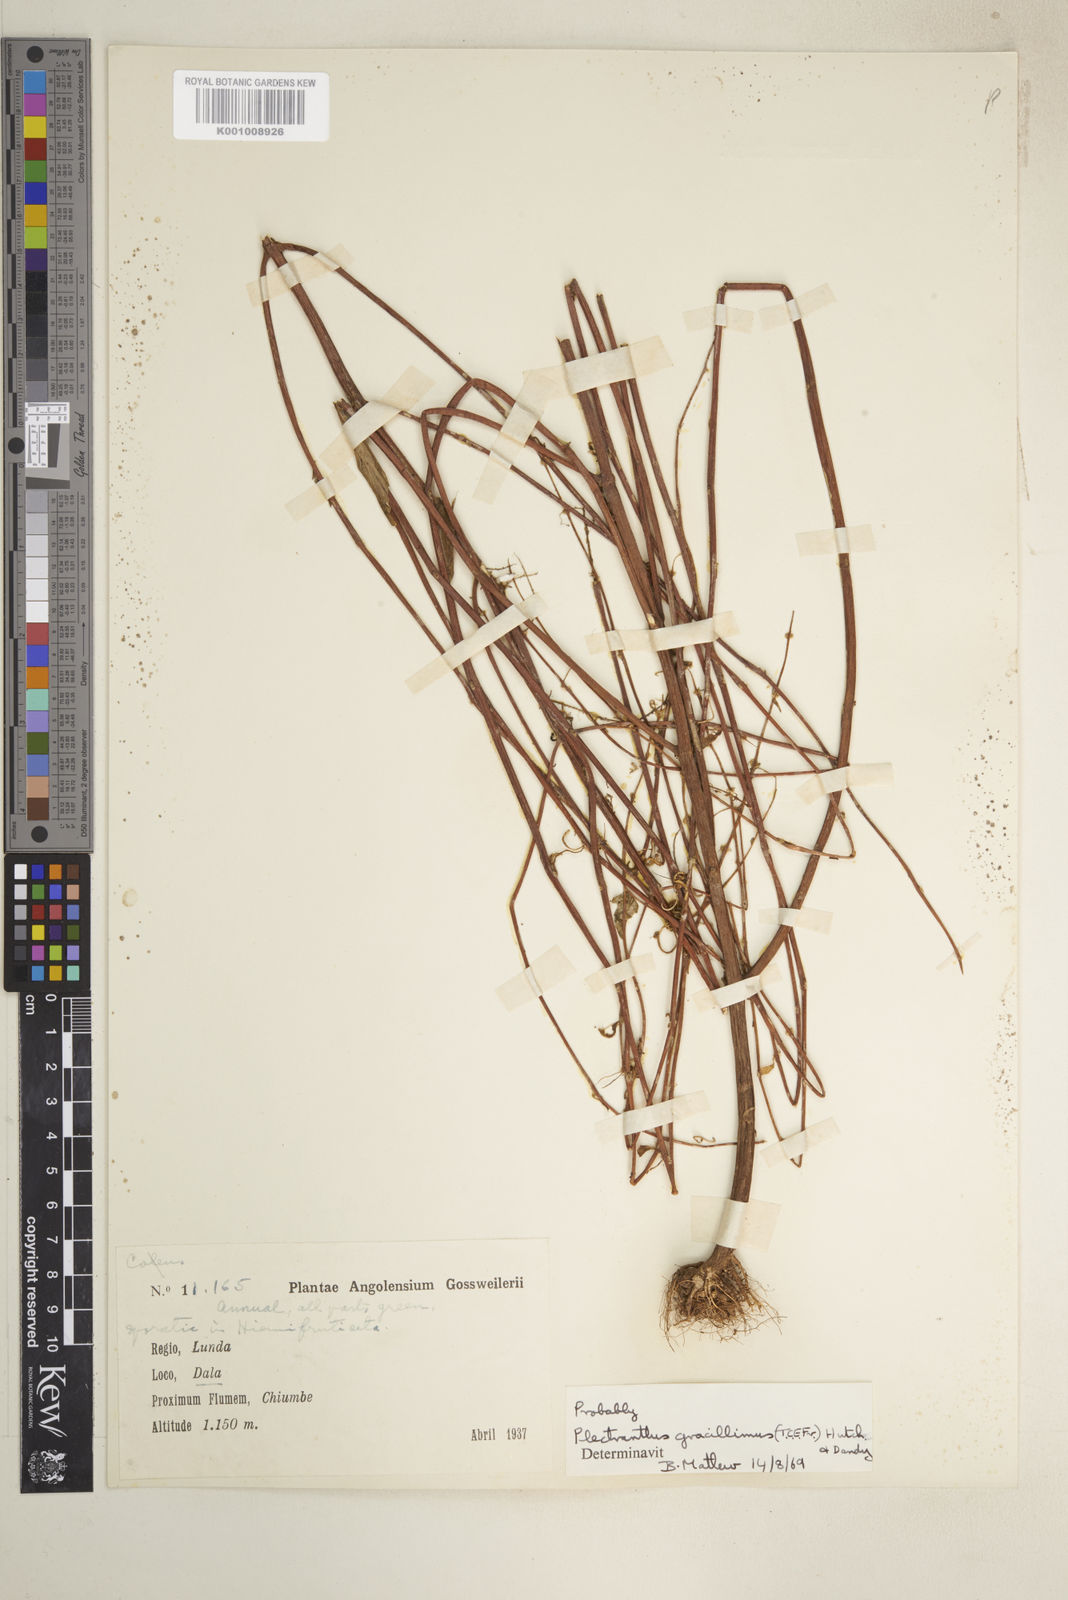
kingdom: Plantae
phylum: Tracheophyta
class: Magnoliopsida
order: Lamiales
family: Lamiaceae
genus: Coleus
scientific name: Coleus gracillimus
